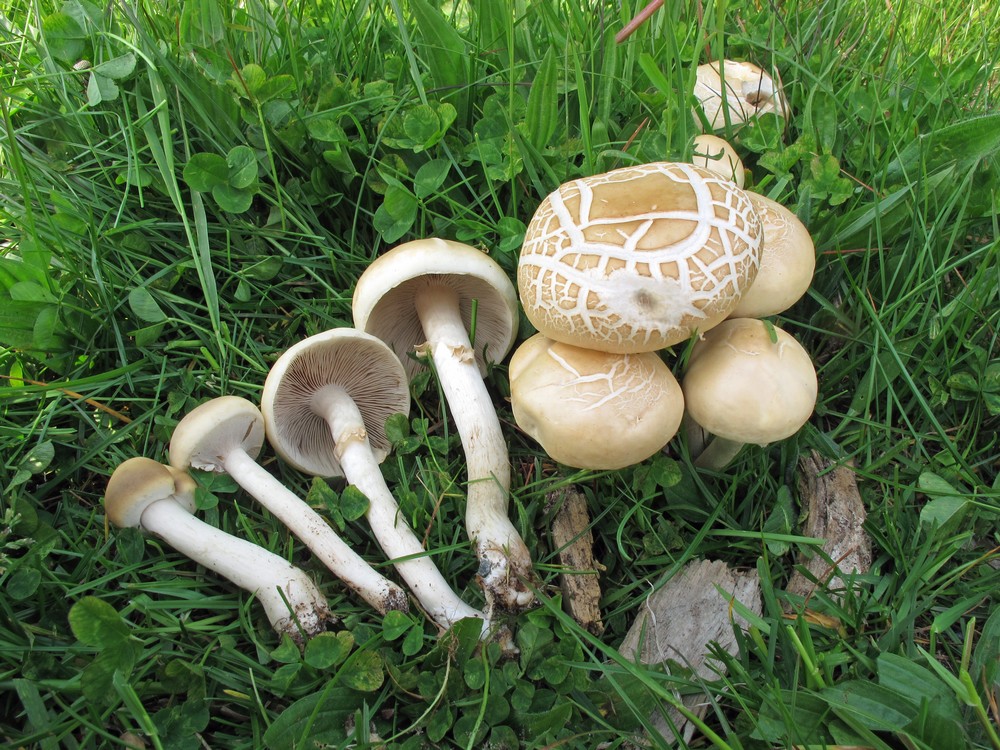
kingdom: Fungi
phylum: Basidiomycota
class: Agaricomycetes
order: Agaricales
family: Strophariaceae
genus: Agrocybe
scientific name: Agrocybe praecox
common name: tidlig agerhat
